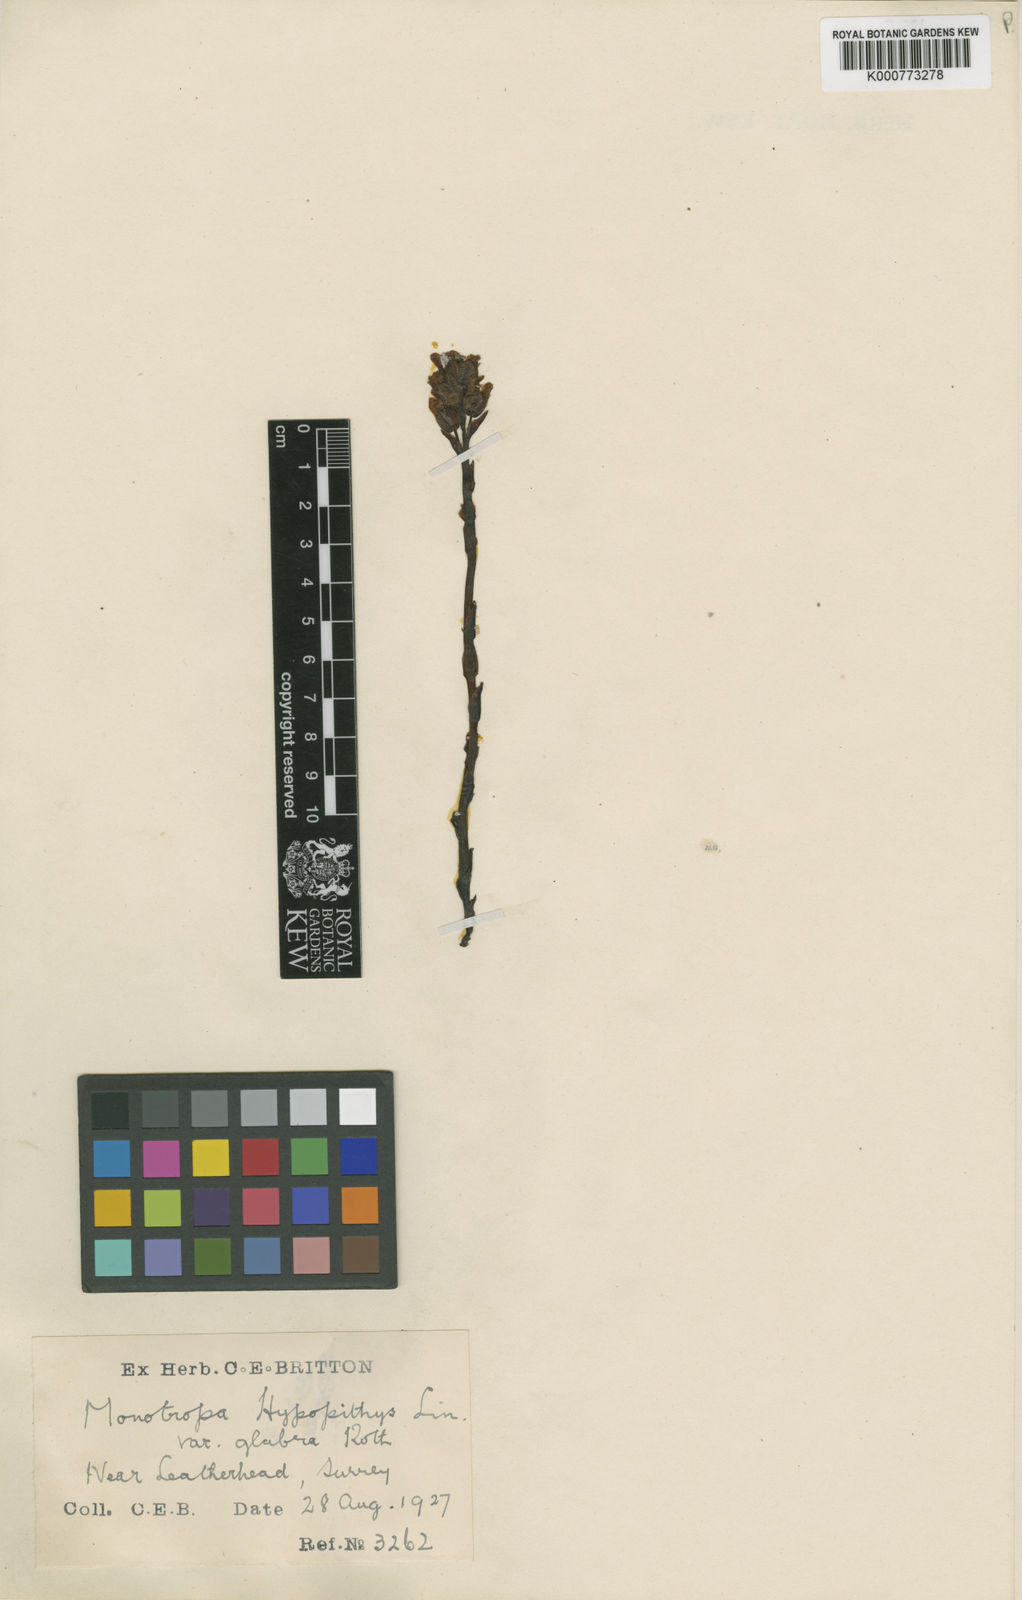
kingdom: Plantae
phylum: Tracheophyta
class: Magnoliopsida
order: Ericales
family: Ericaceae
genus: Monotropa
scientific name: Monotropa
